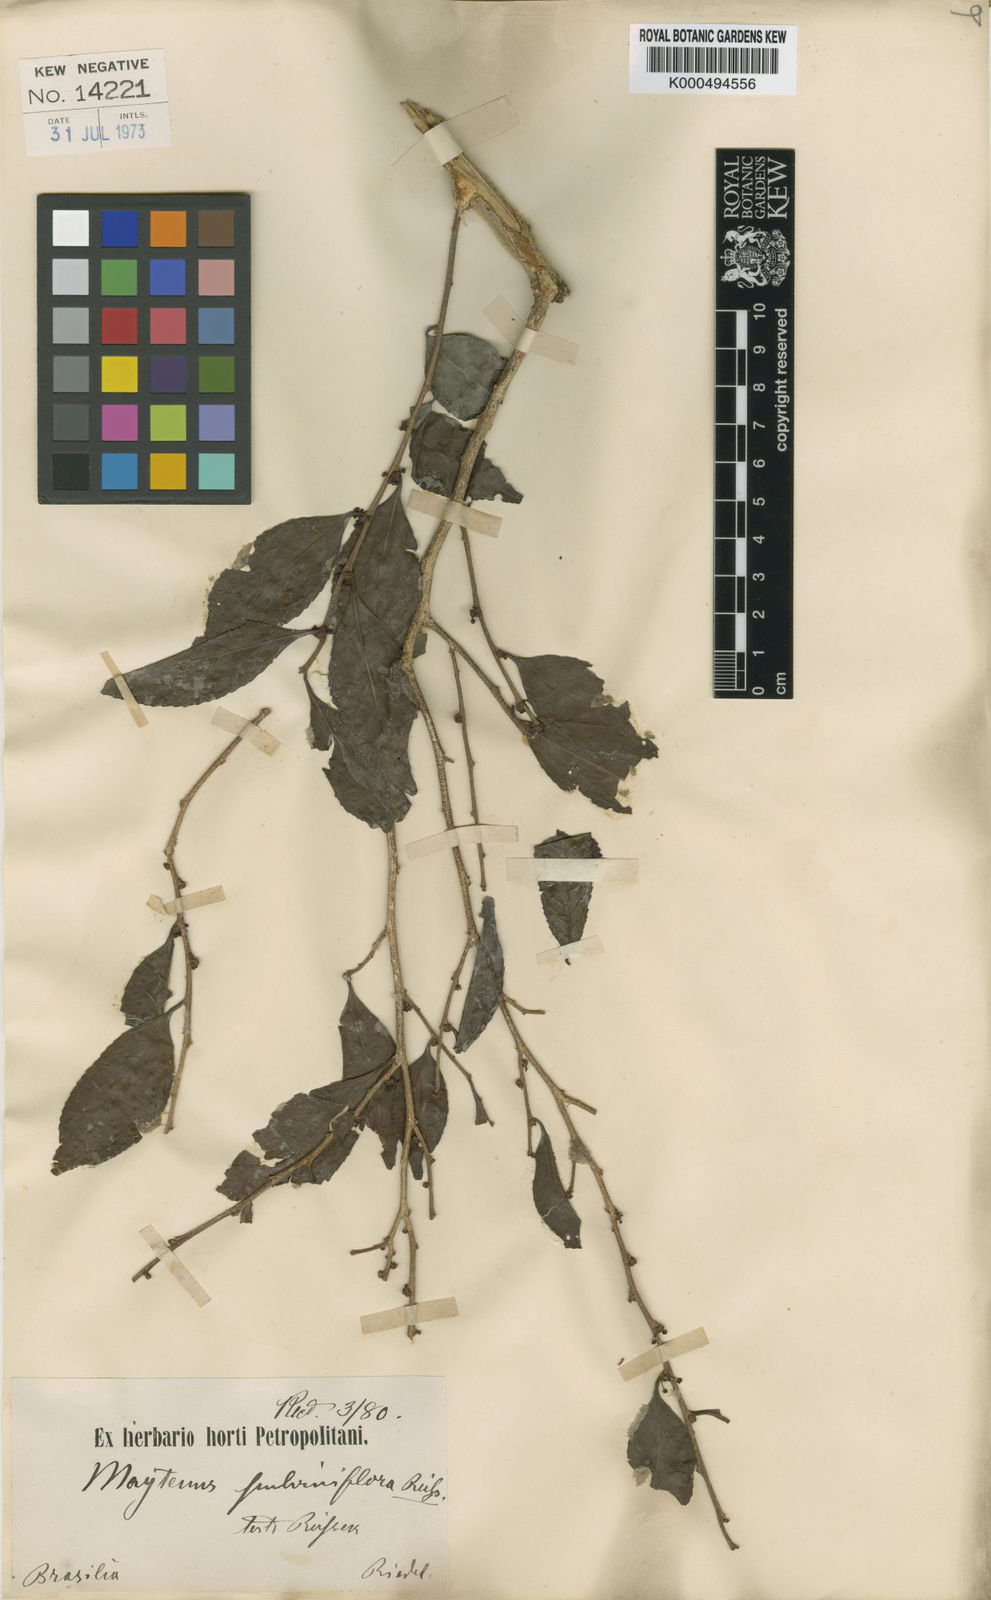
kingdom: Plantae
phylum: Tracheophyta
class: Magnoliopsida
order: Celastrales
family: Celastraceae
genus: Monteverdia
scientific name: Monteverdia evonymoides
